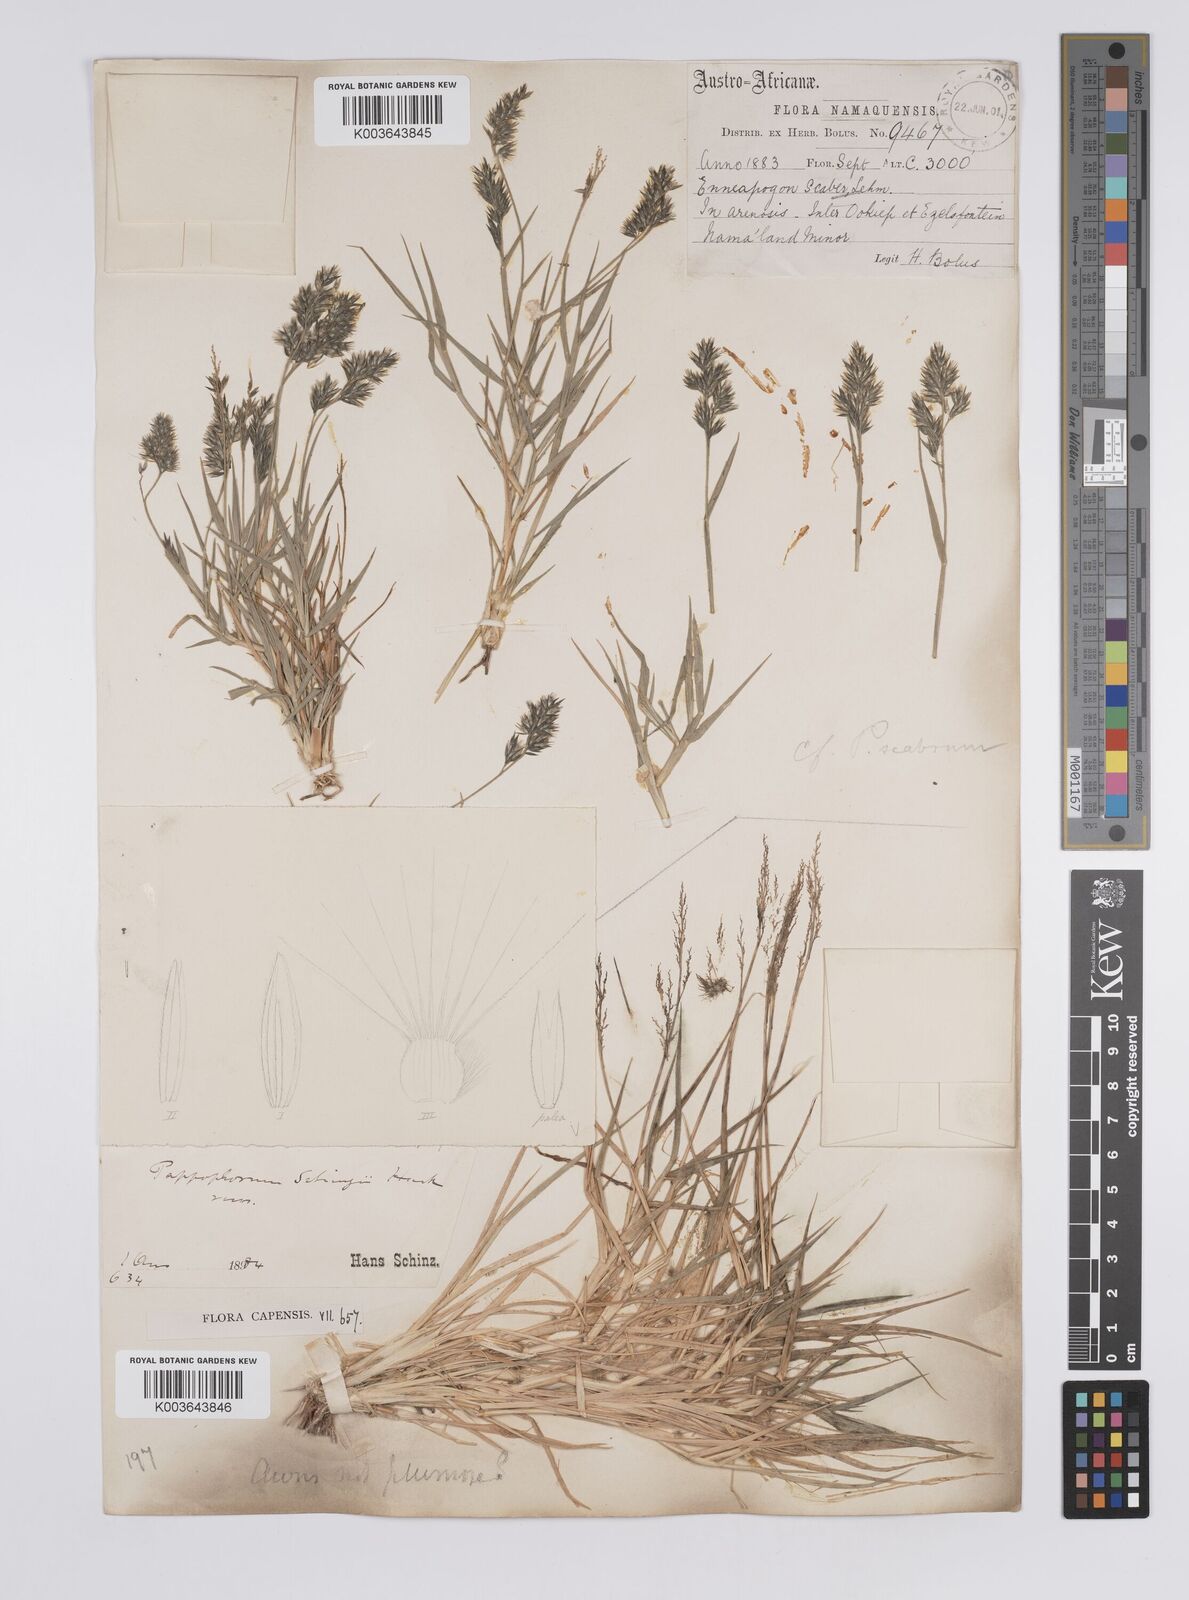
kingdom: Plantae
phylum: Tracheophyta
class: Liliopsida
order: Poales
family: Poaceae
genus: Enneapogon
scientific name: Enneapogon scaber
